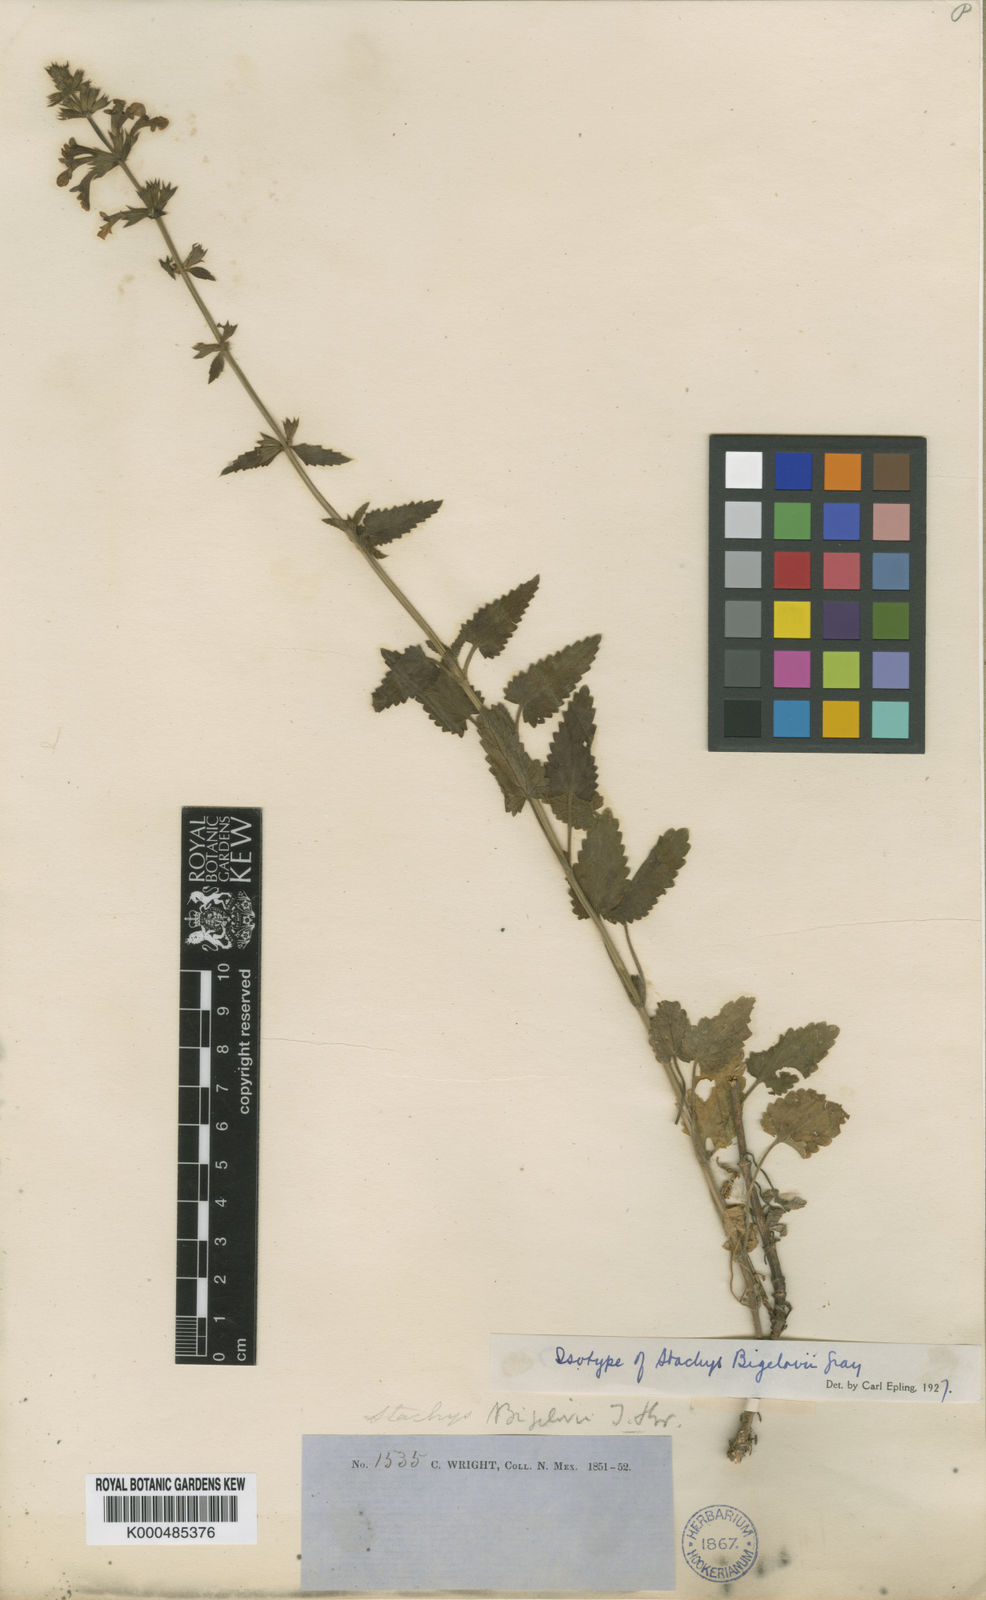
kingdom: Plantae
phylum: Tracheophyta
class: Magnoliopsida
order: Lamiales
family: Lamiaceae
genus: Stachys
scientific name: Stachys bigelovii
